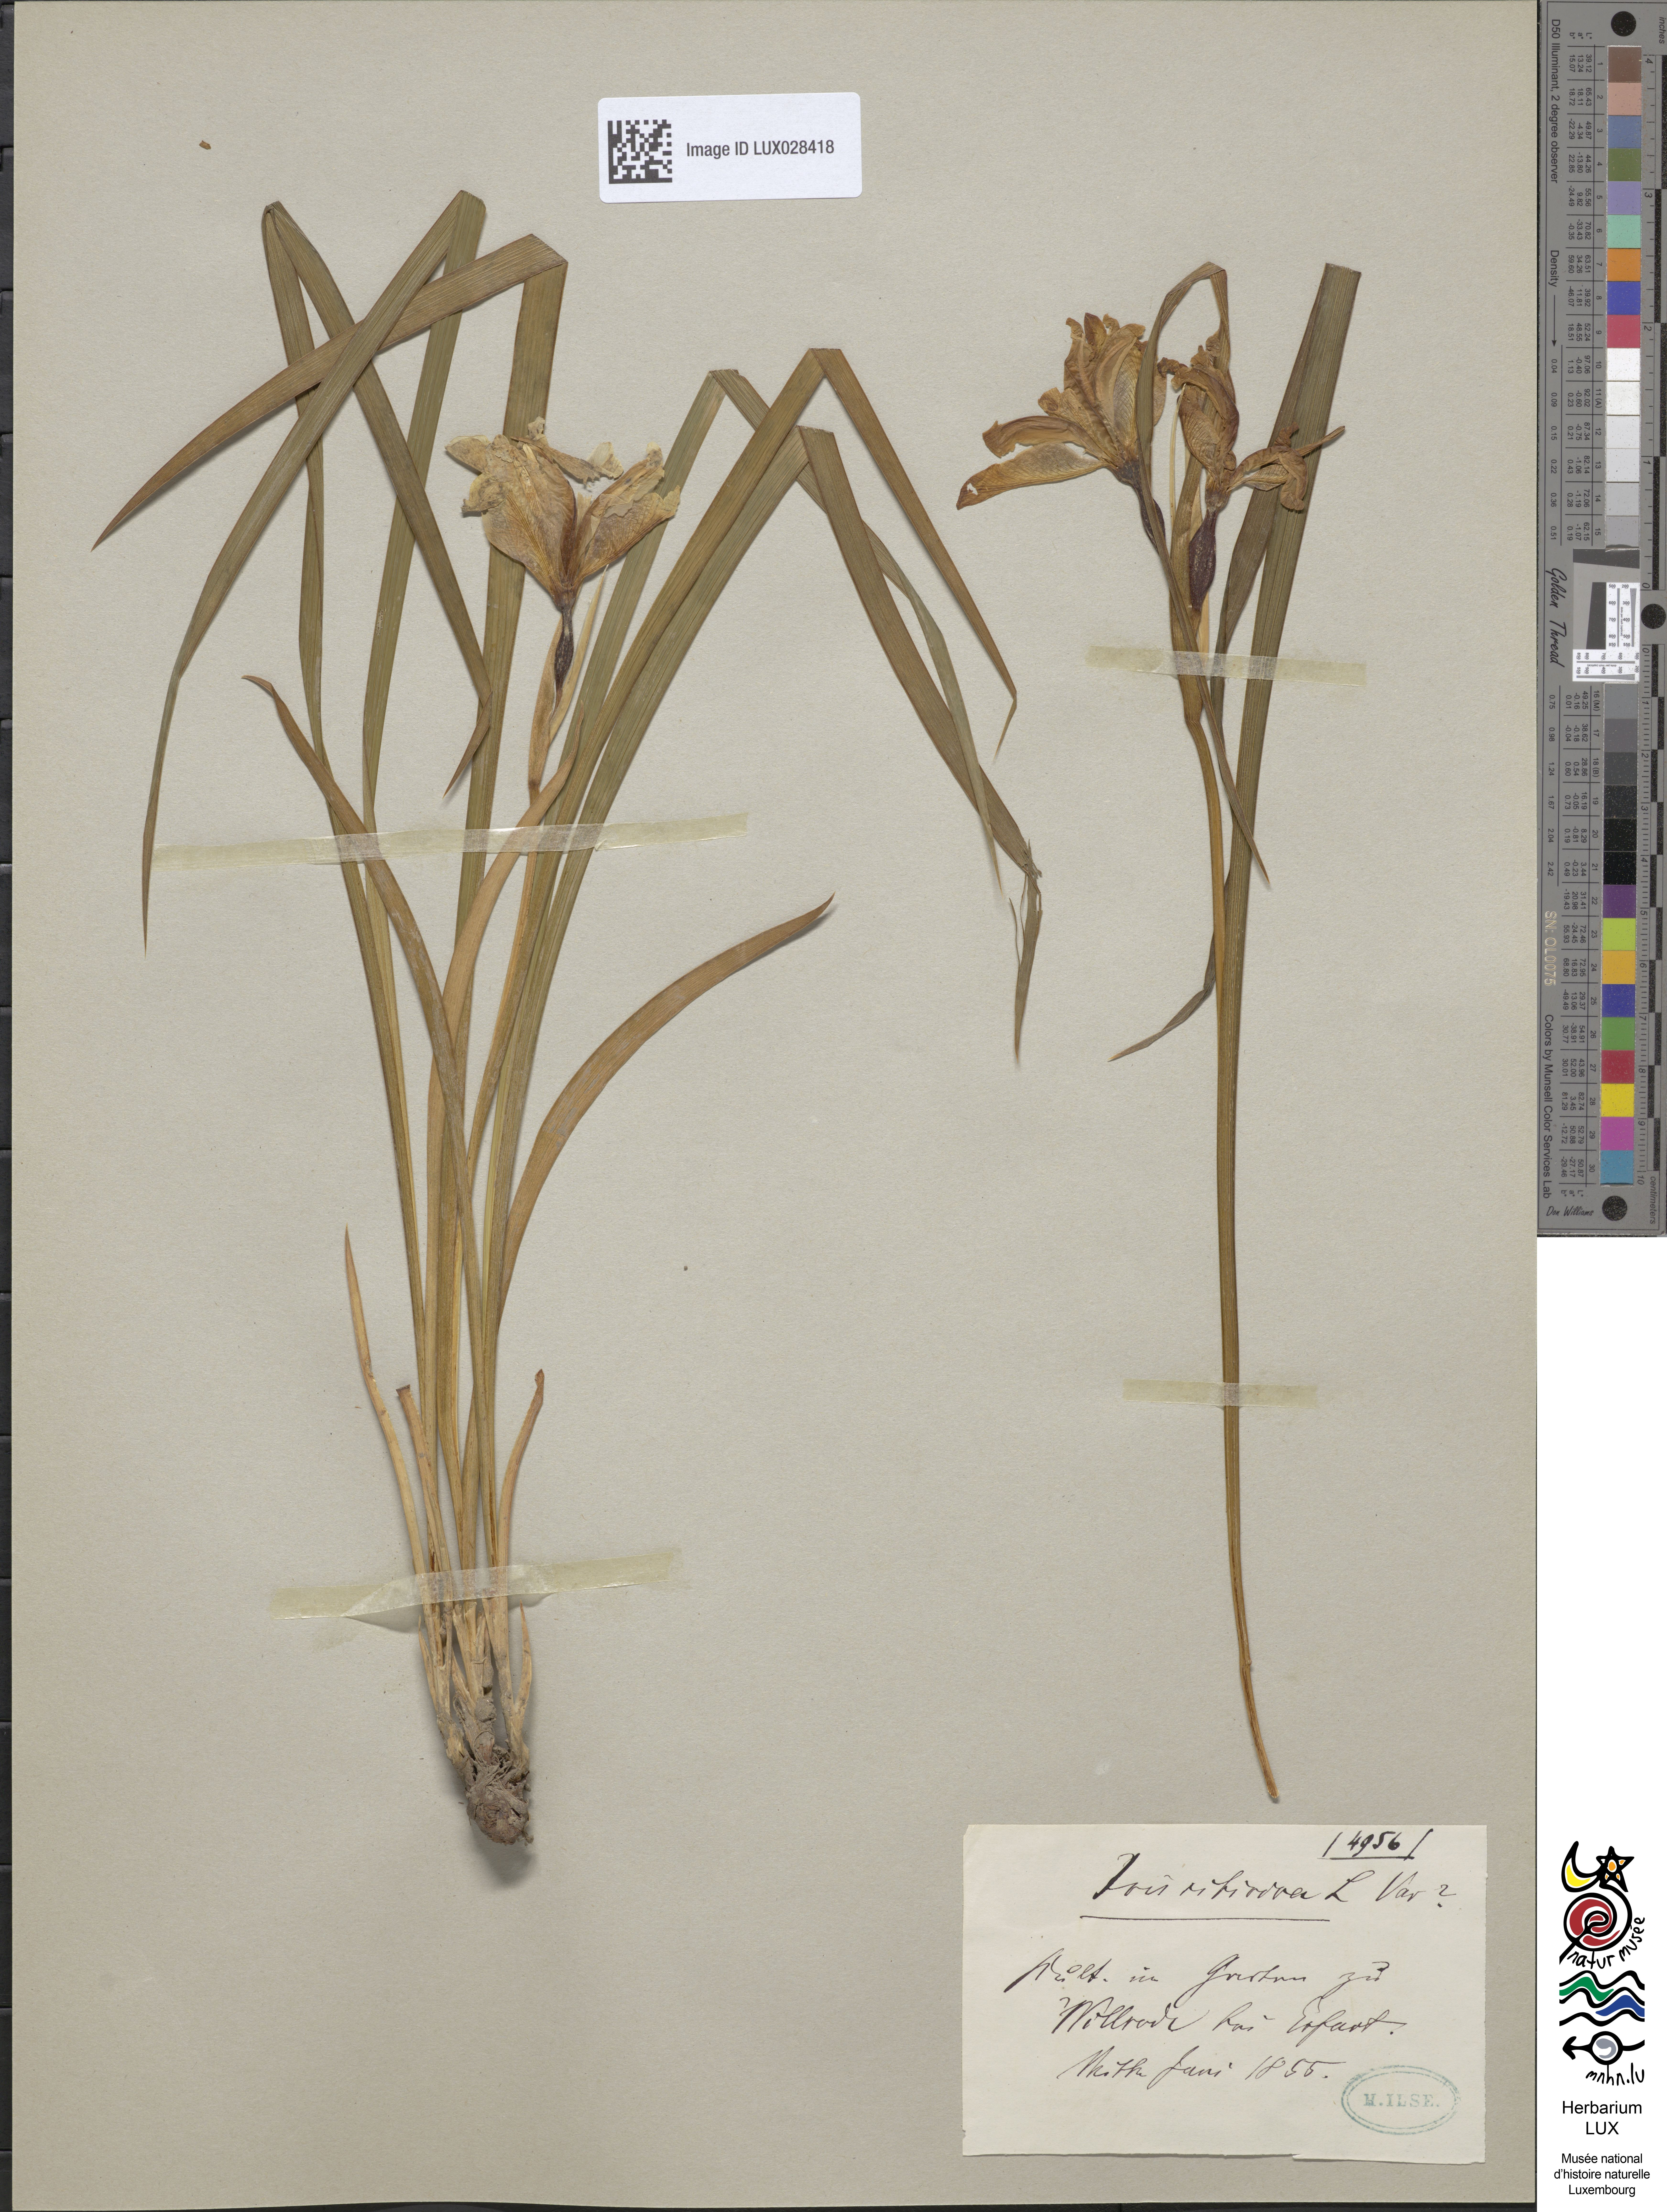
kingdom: Animalia
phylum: Arthropoda
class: Insecta
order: Mantodea
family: Eremiaphilidae
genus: Iris
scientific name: Iris
